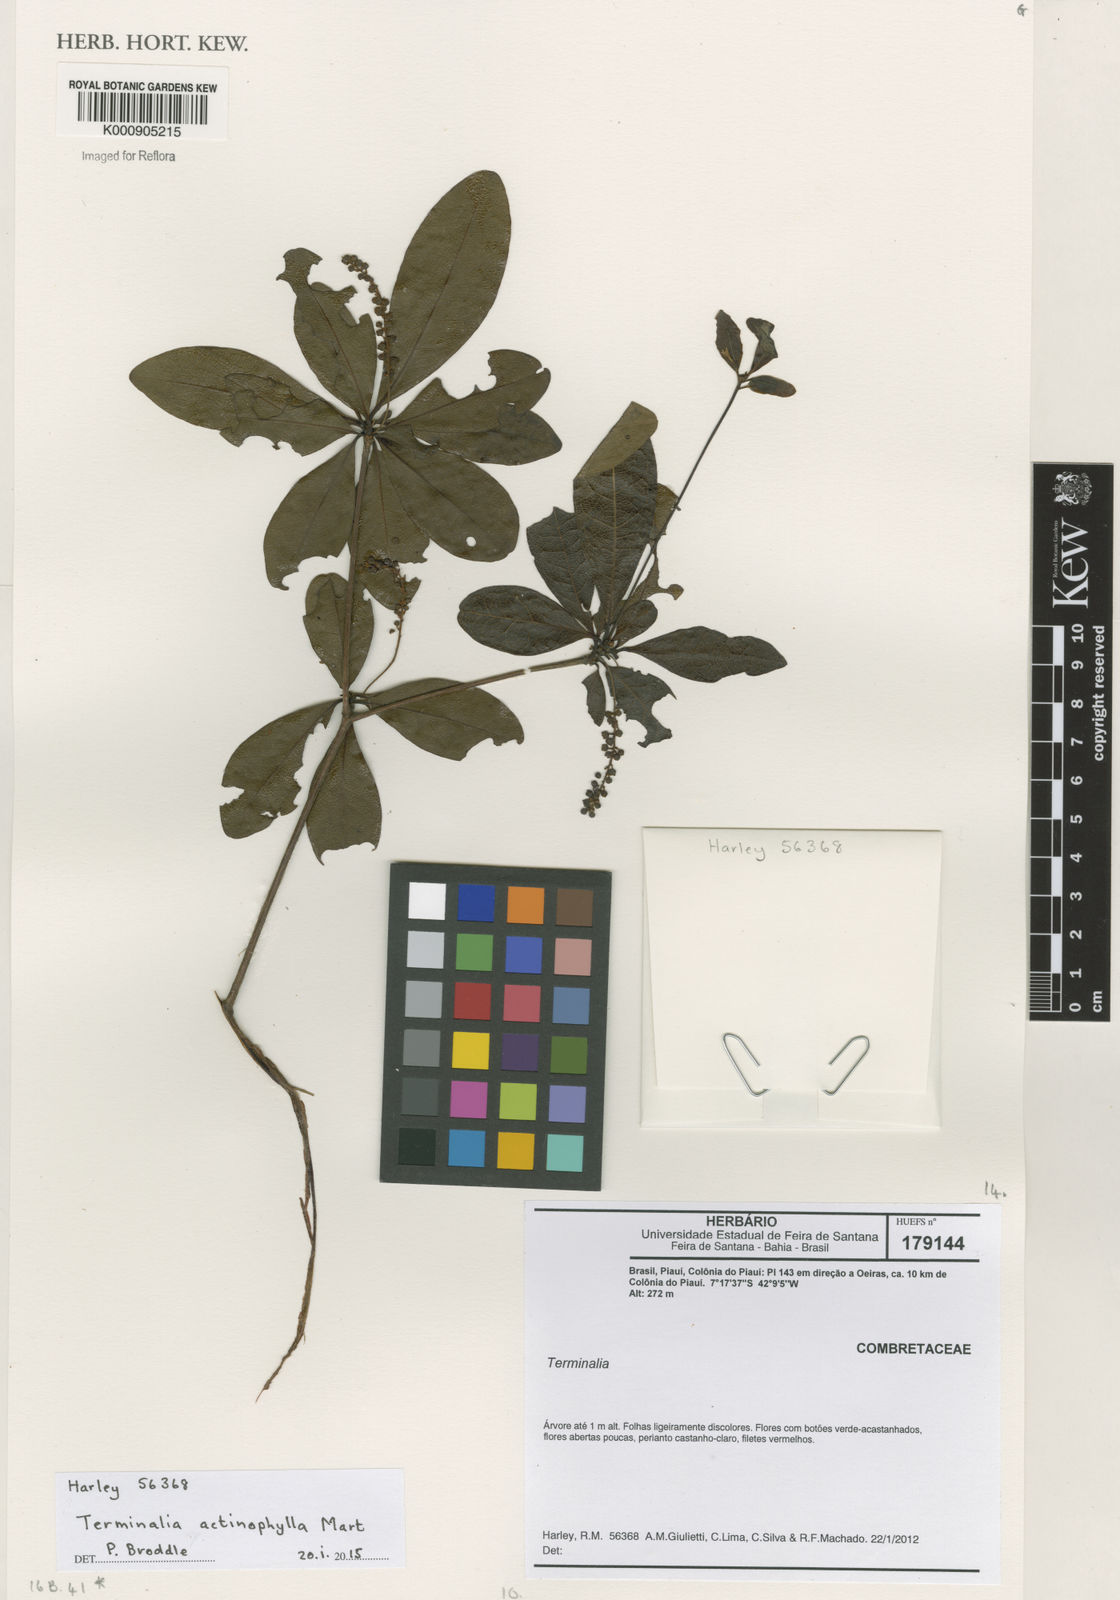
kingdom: Plantae
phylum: Tracheophyta
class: Magnoliopsida
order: Myrtales
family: Combretaceae
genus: Terminalia
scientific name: Terminalia actinophylla
